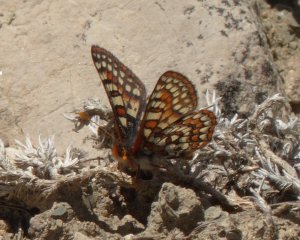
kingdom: Animalia
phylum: Arthropoda
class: Insecta
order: Lepidoptera
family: Nymphalidae
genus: Occidryas
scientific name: Occidryas editha
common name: Edith's Checkerspot
